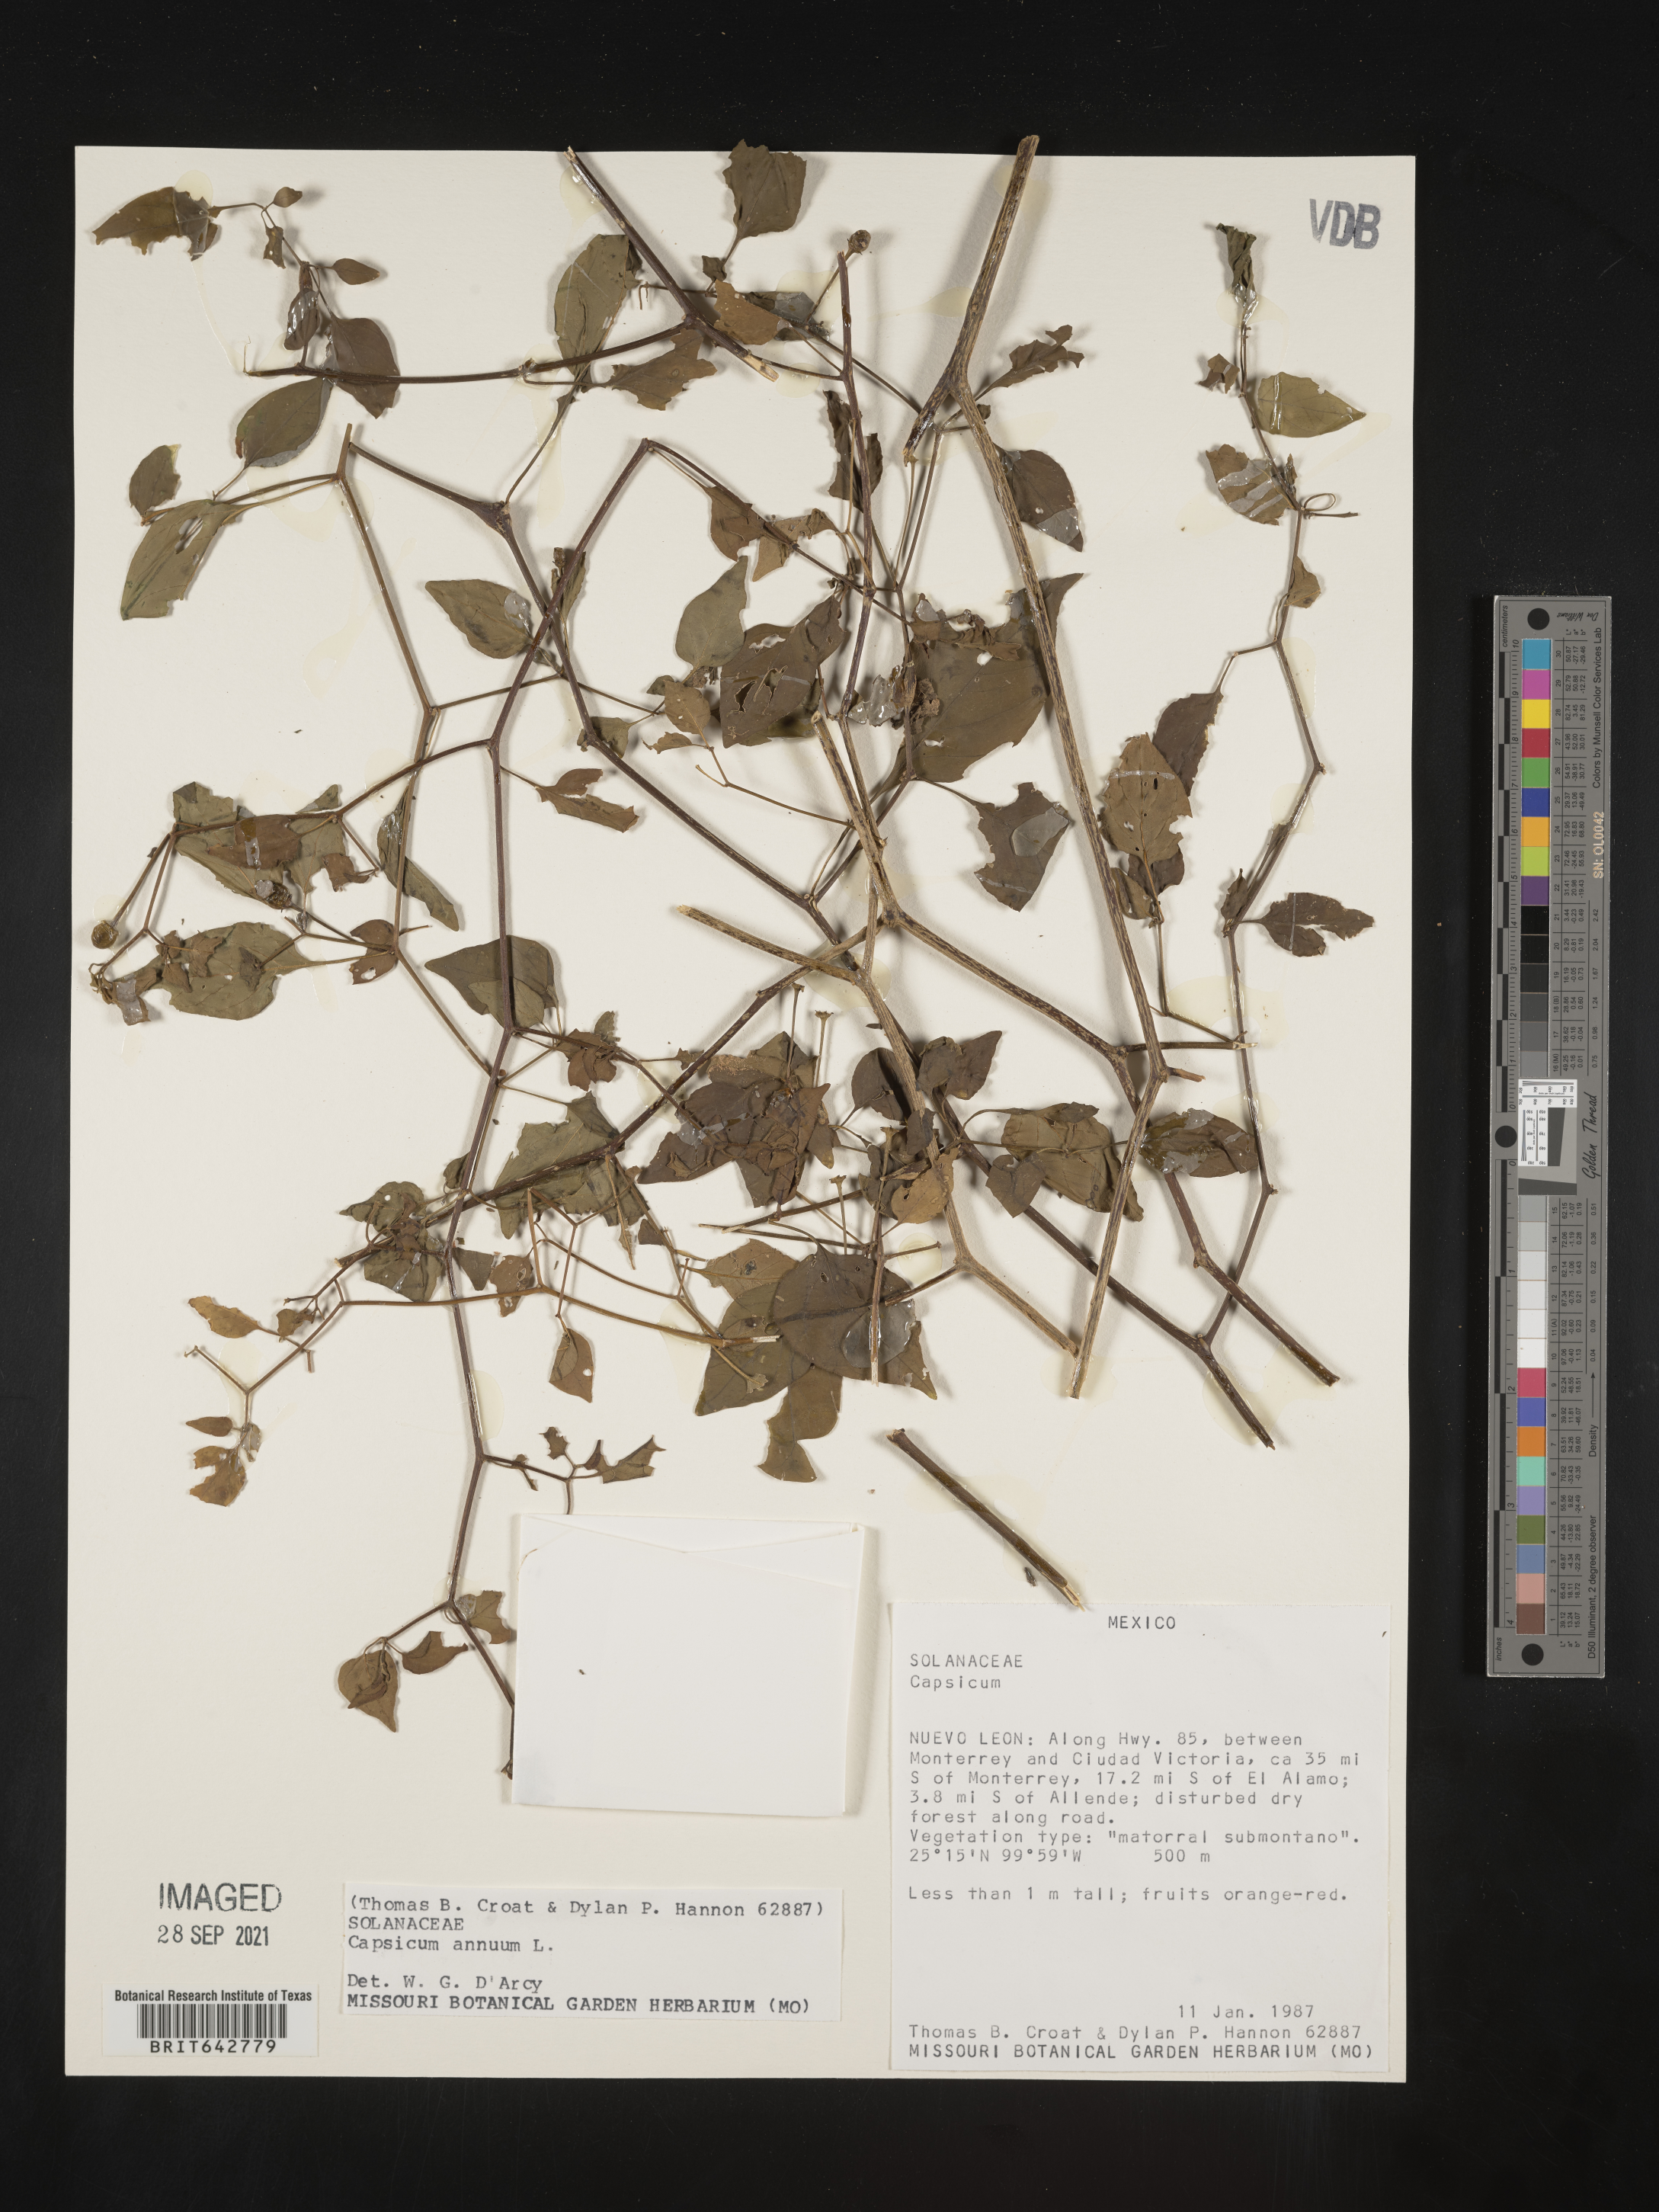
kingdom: Plantae
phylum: Tracheophyta
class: Magnoliopsida
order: Solanales
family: Solanaceae
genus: Capsicum
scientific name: Capsicum
